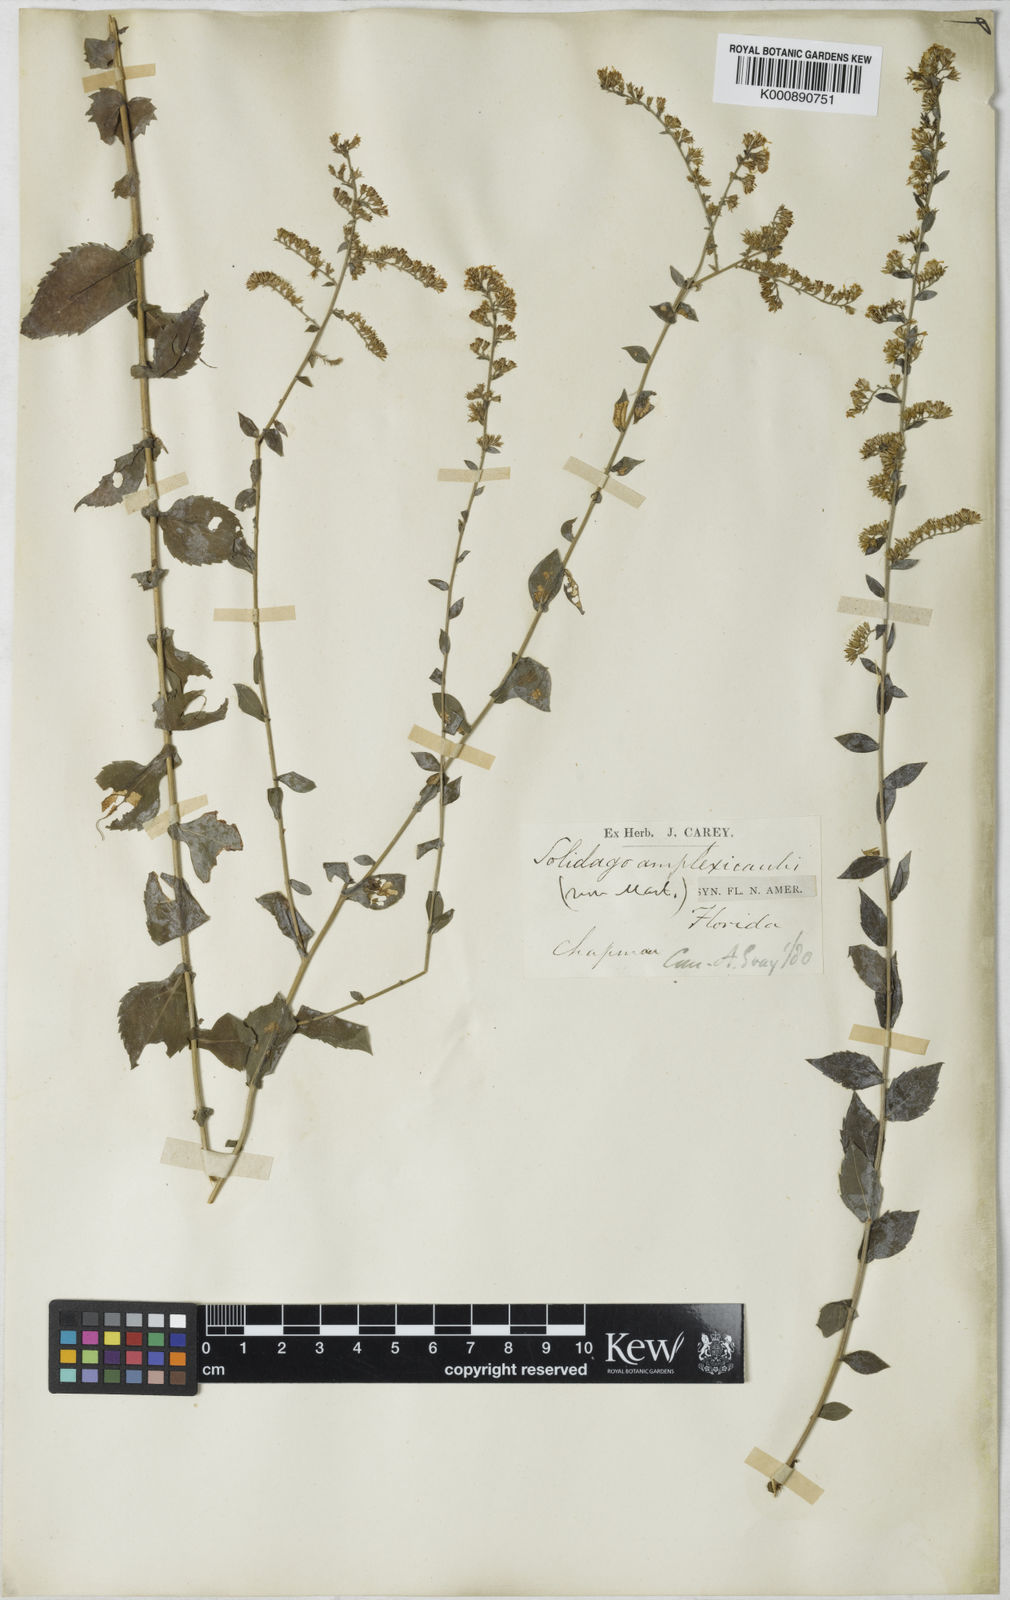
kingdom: Plantae
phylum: Tracheophyta
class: Magnoliopsida
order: Asterales
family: Asteraceae
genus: Solidago
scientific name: Solidago auriculata
